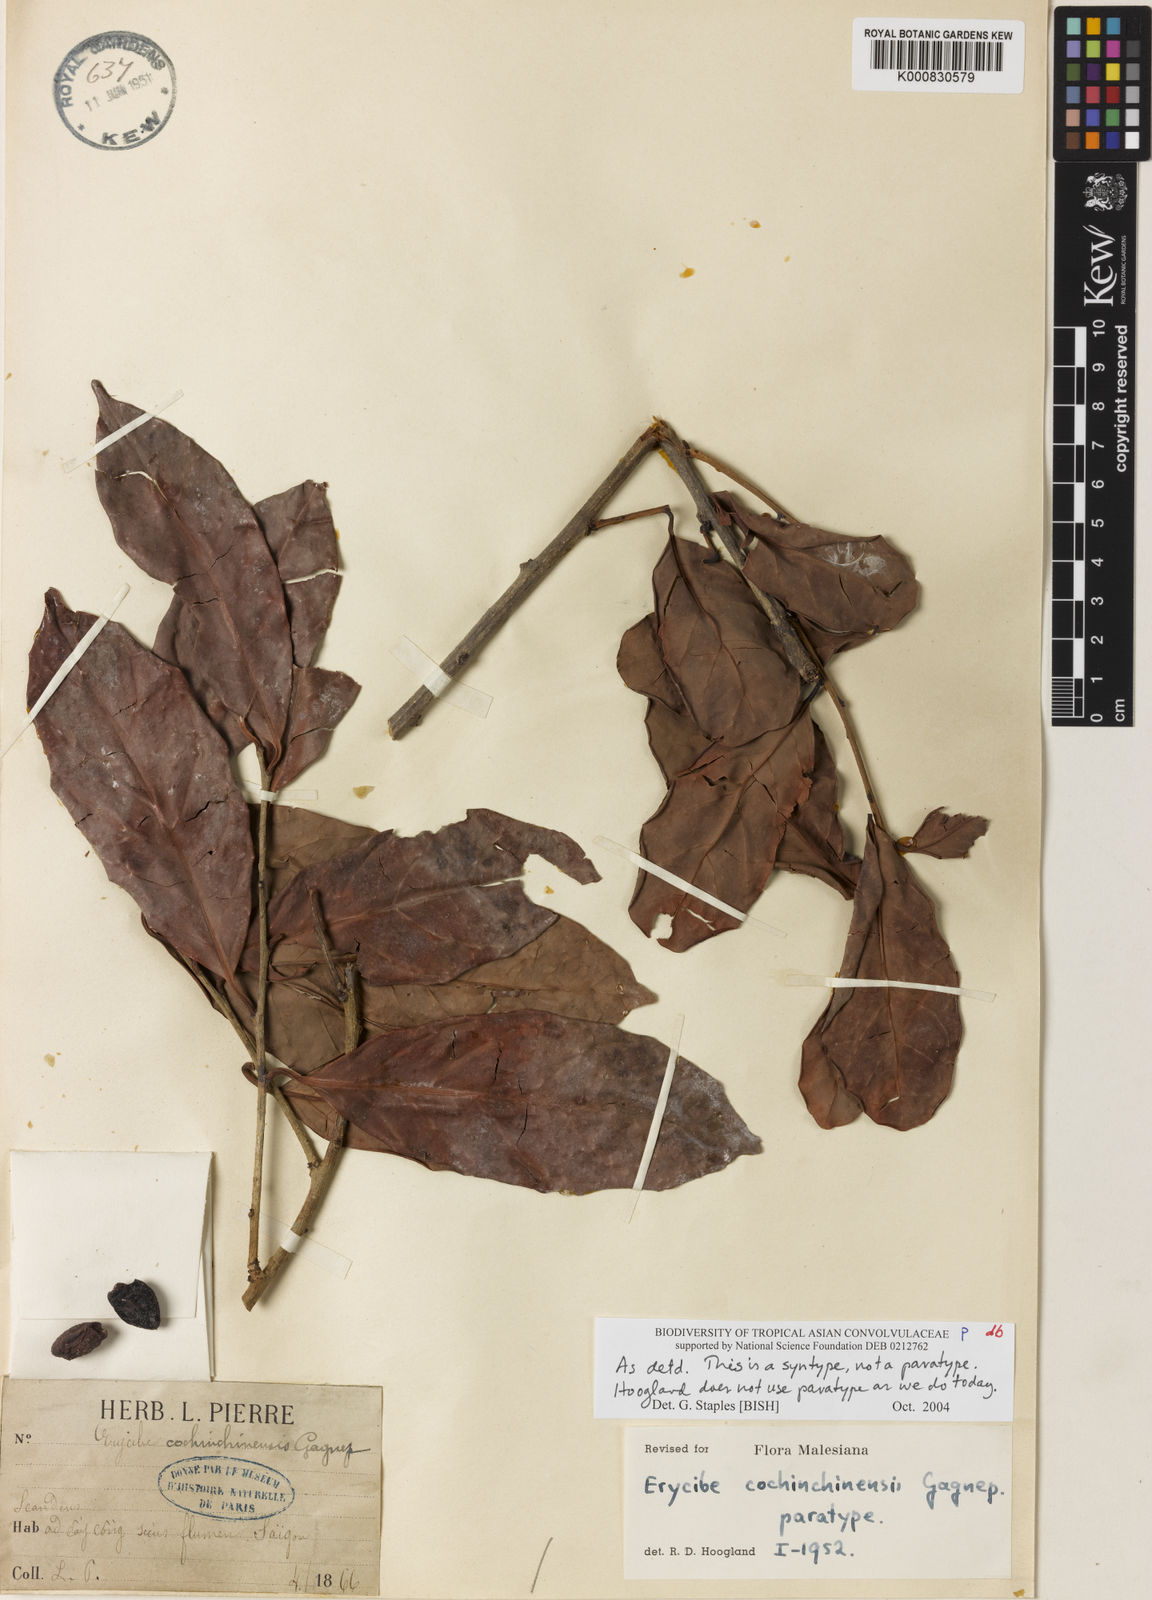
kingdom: Plantae
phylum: Tracheophyta
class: Magnoliopsida
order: Solanales
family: Convolvulaceae
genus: Erycibe
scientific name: Erycibe cochinchinensis
